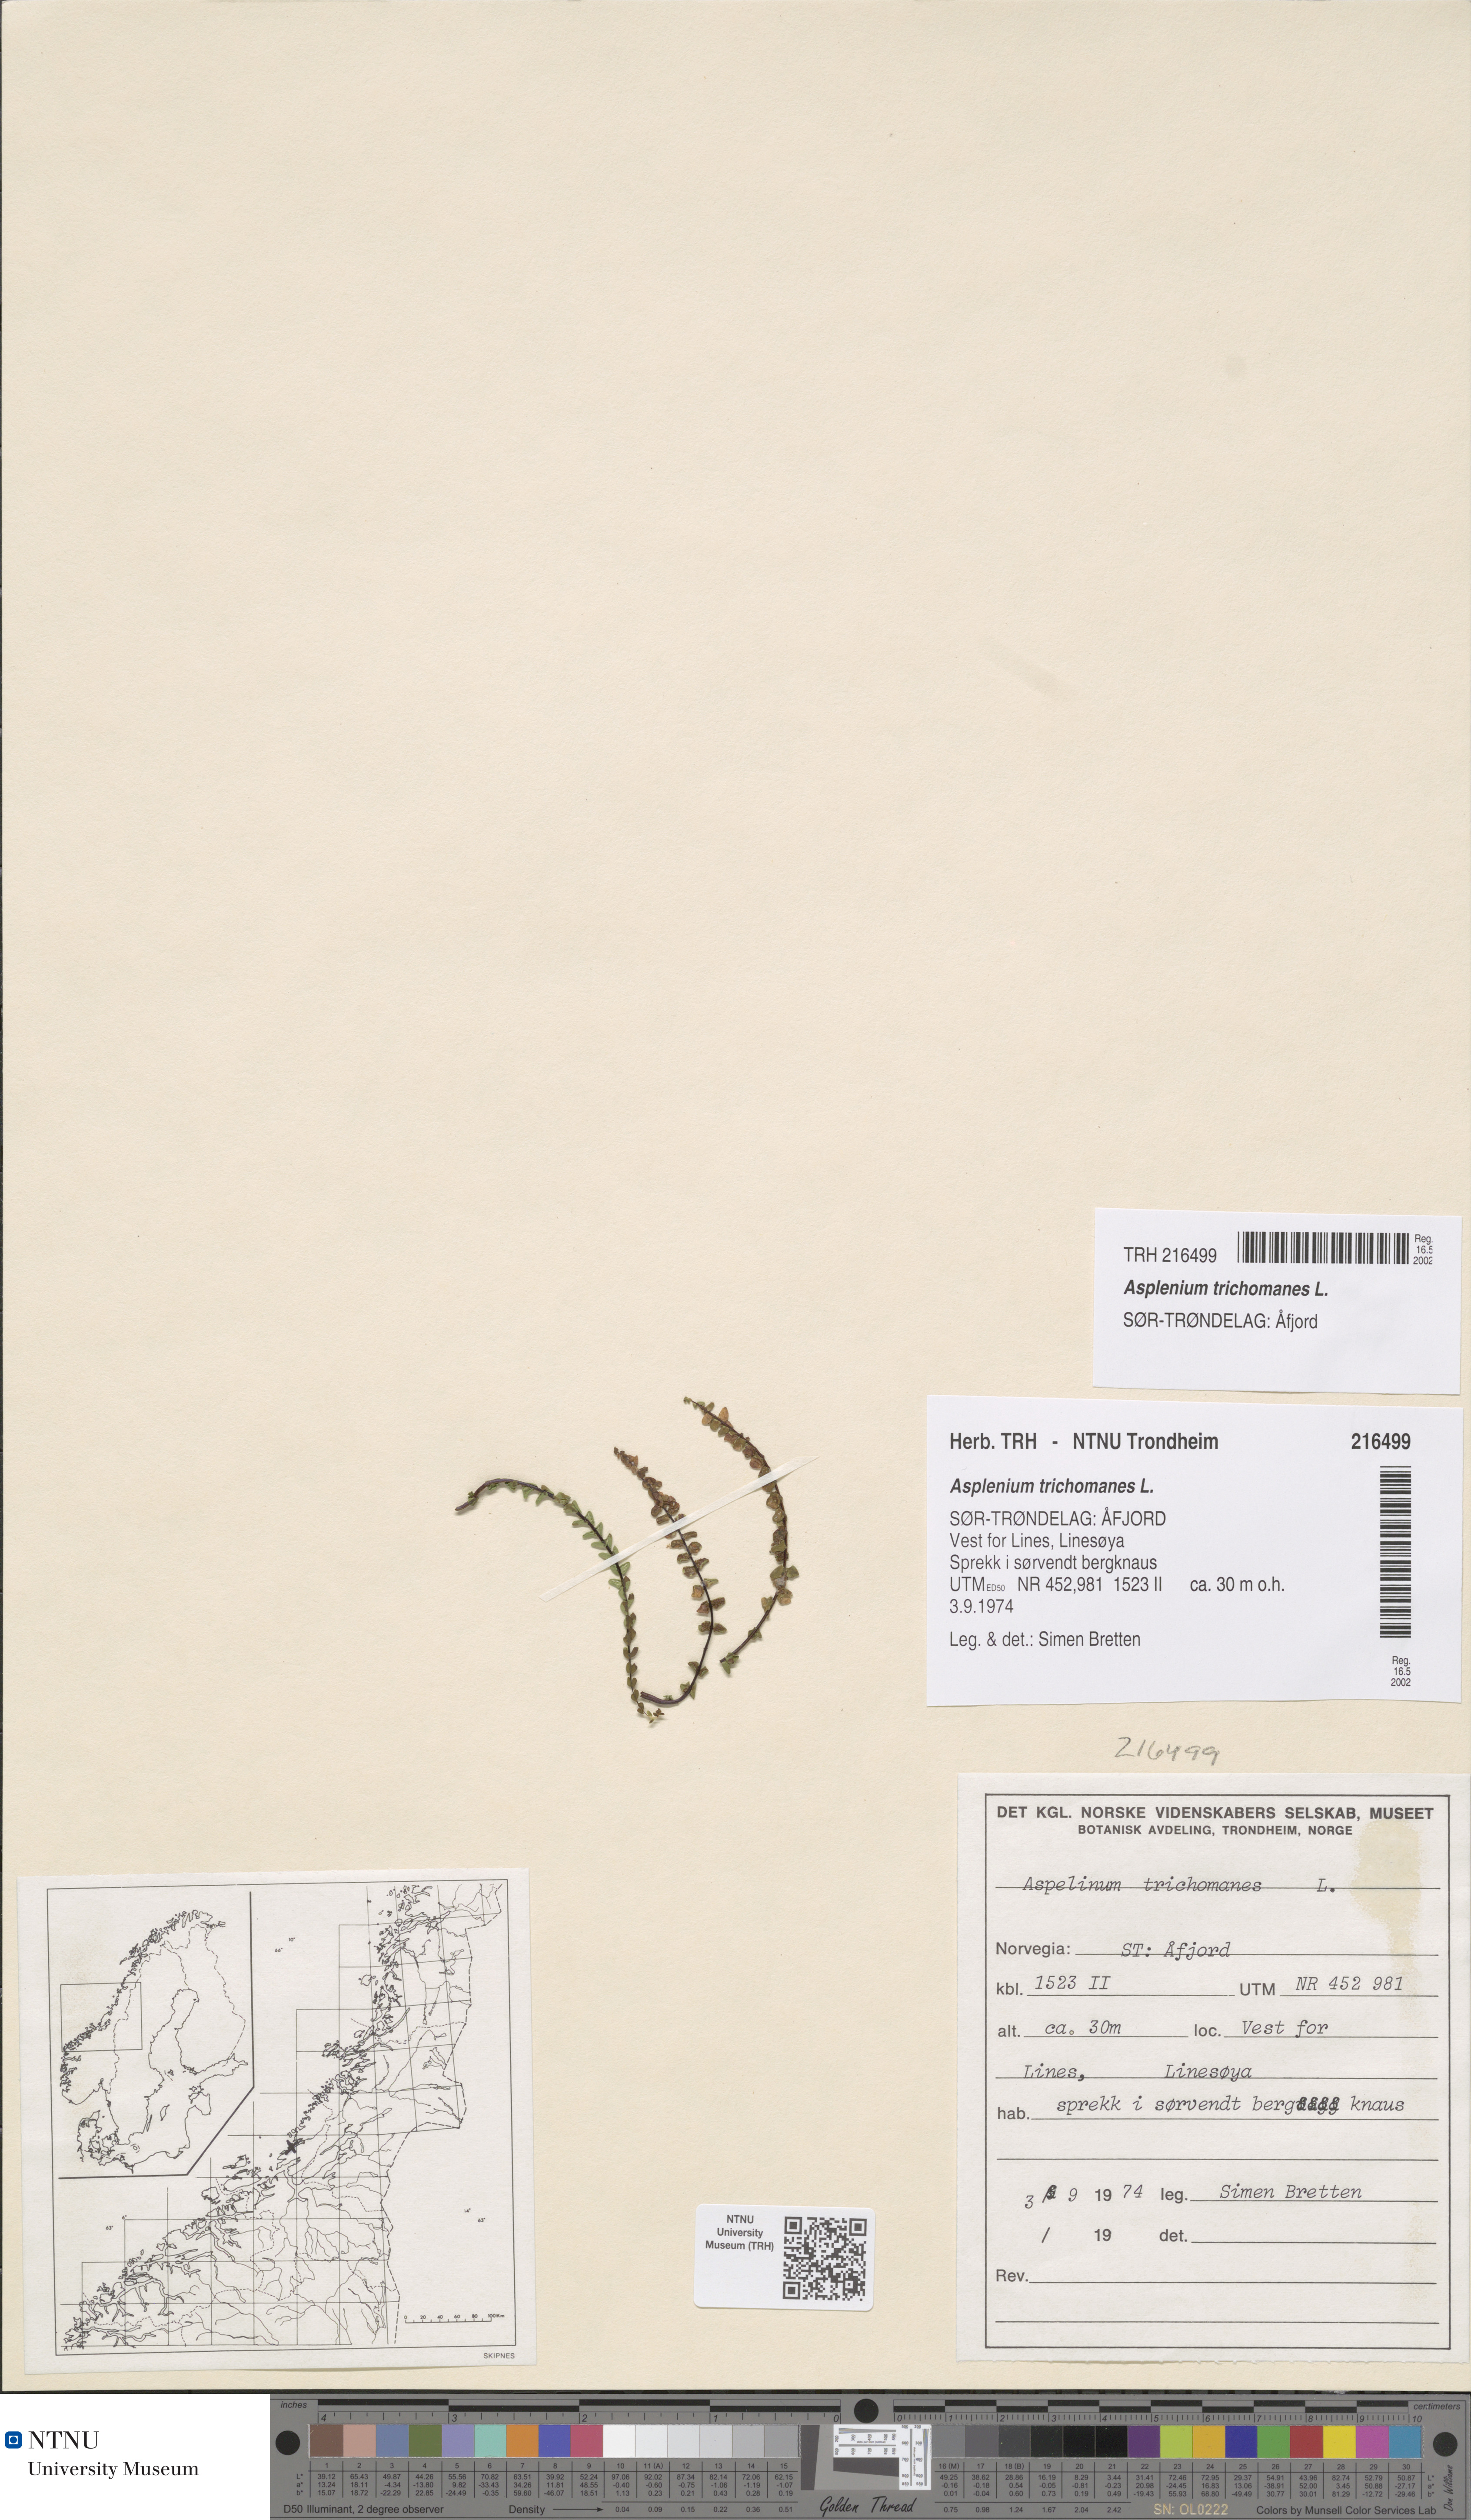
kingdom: Plantae
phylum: Tracheophyta
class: Polypodiopsida
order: Polypodiales
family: Aspleniaceae
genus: Asplenium
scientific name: Asplenium trichomanes
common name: Maidenhair spleenwort
